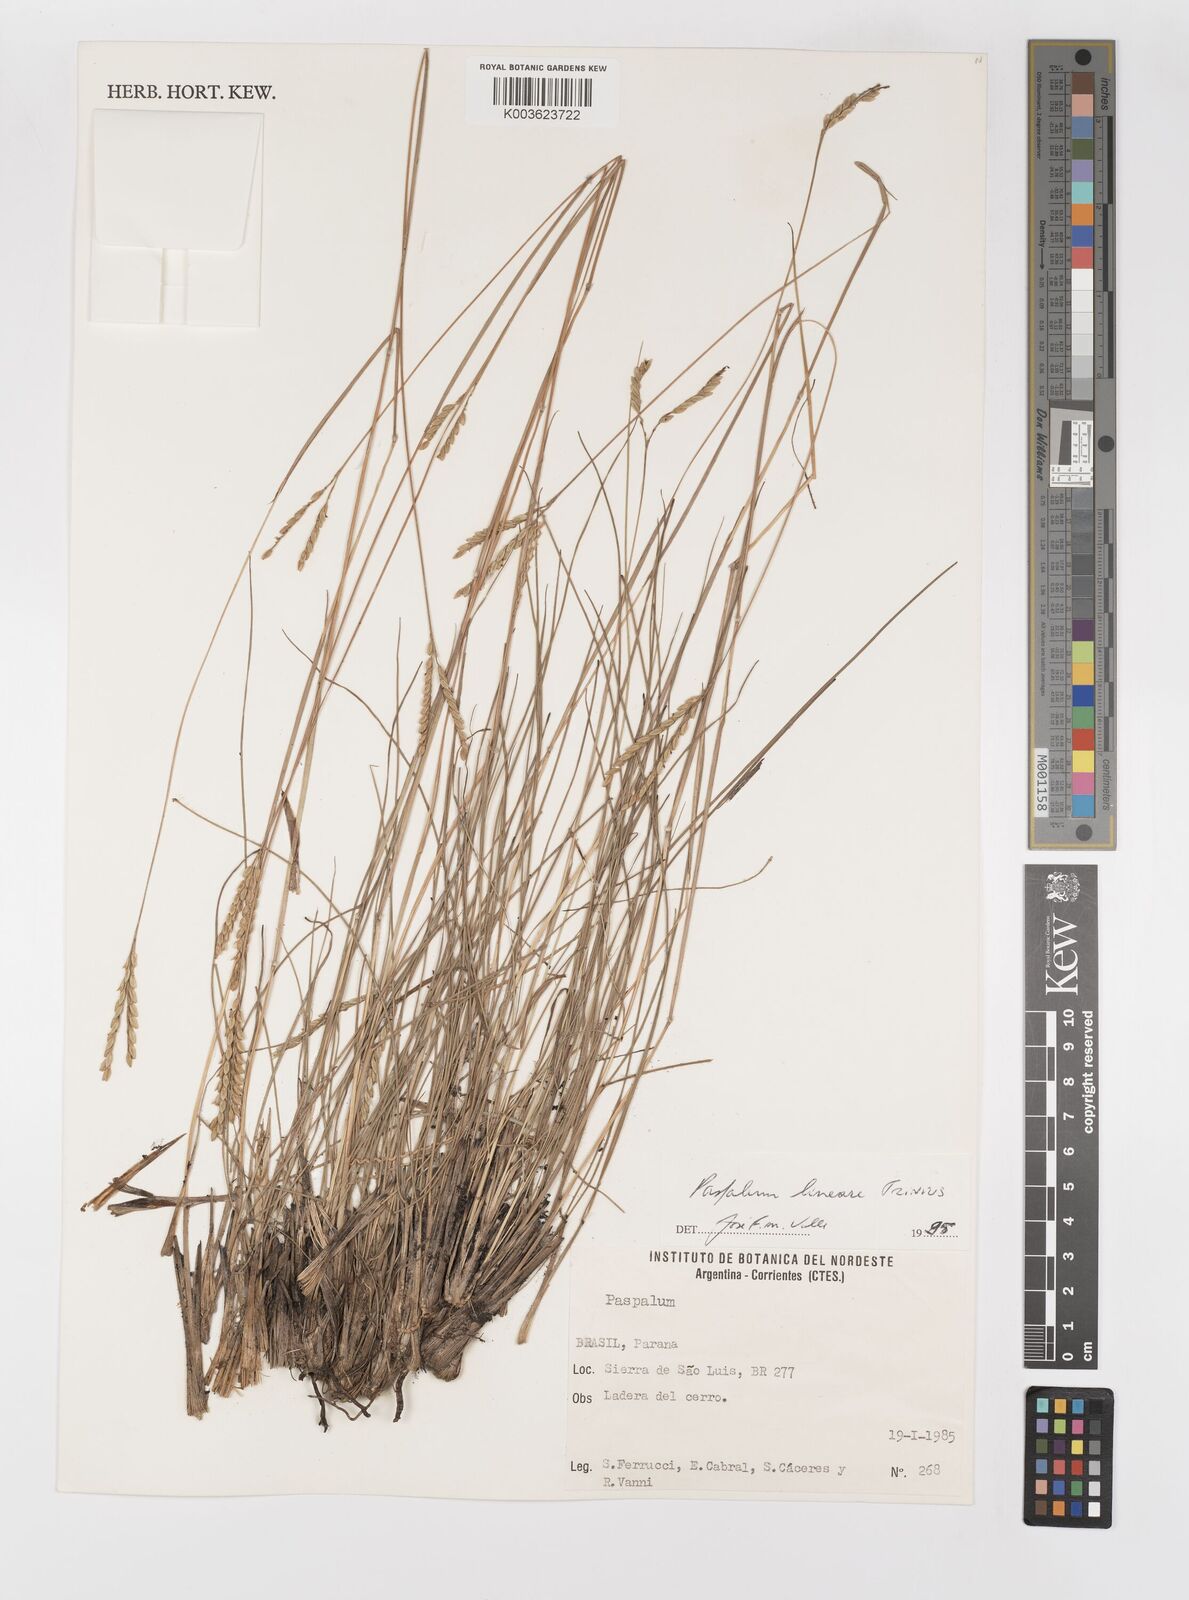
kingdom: Plantae
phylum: Tracheophyta
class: Liliopsida
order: Poales
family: Poaceae
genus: Paspalum
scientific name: Paspalum caespitosum
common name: Blue crowngrass
